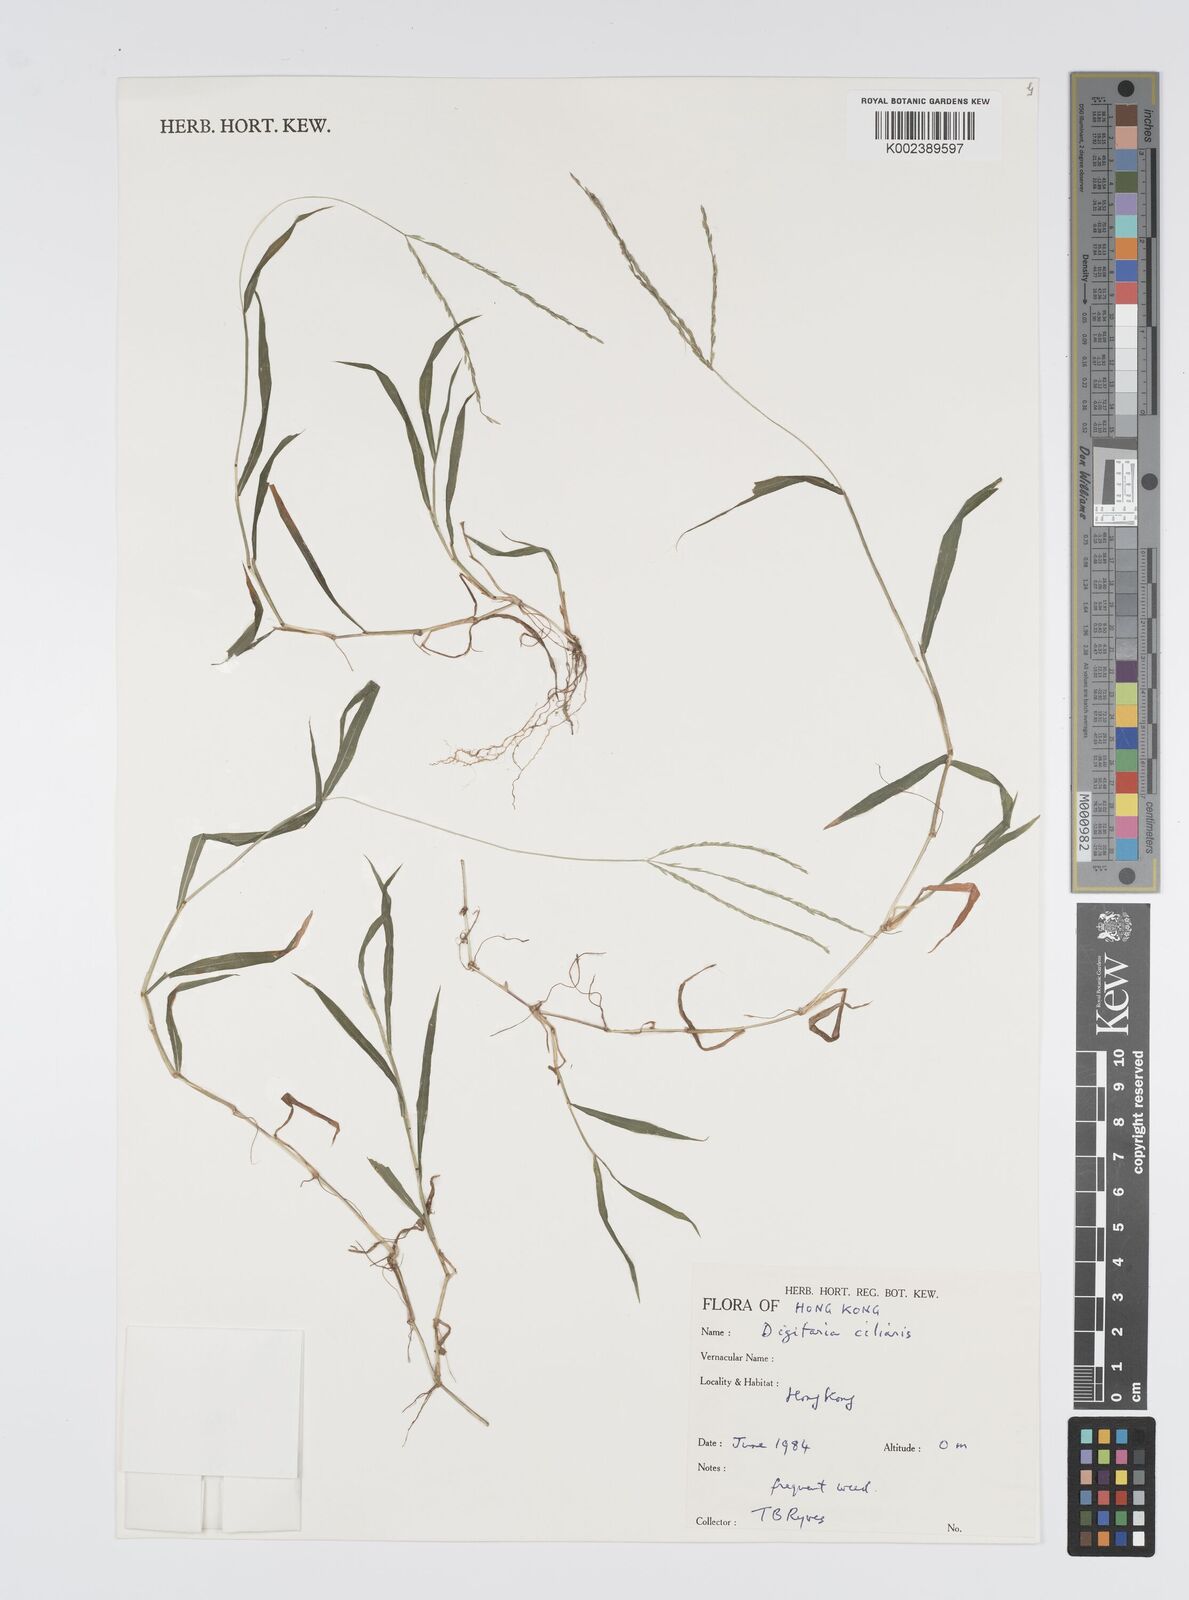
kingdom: Plantae
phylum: Tracheophyta
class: Liliopsida
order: Poales
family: Poaceae
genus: Digitaria
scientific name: Digitaria ciliaris
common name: Tropical finger-grass
